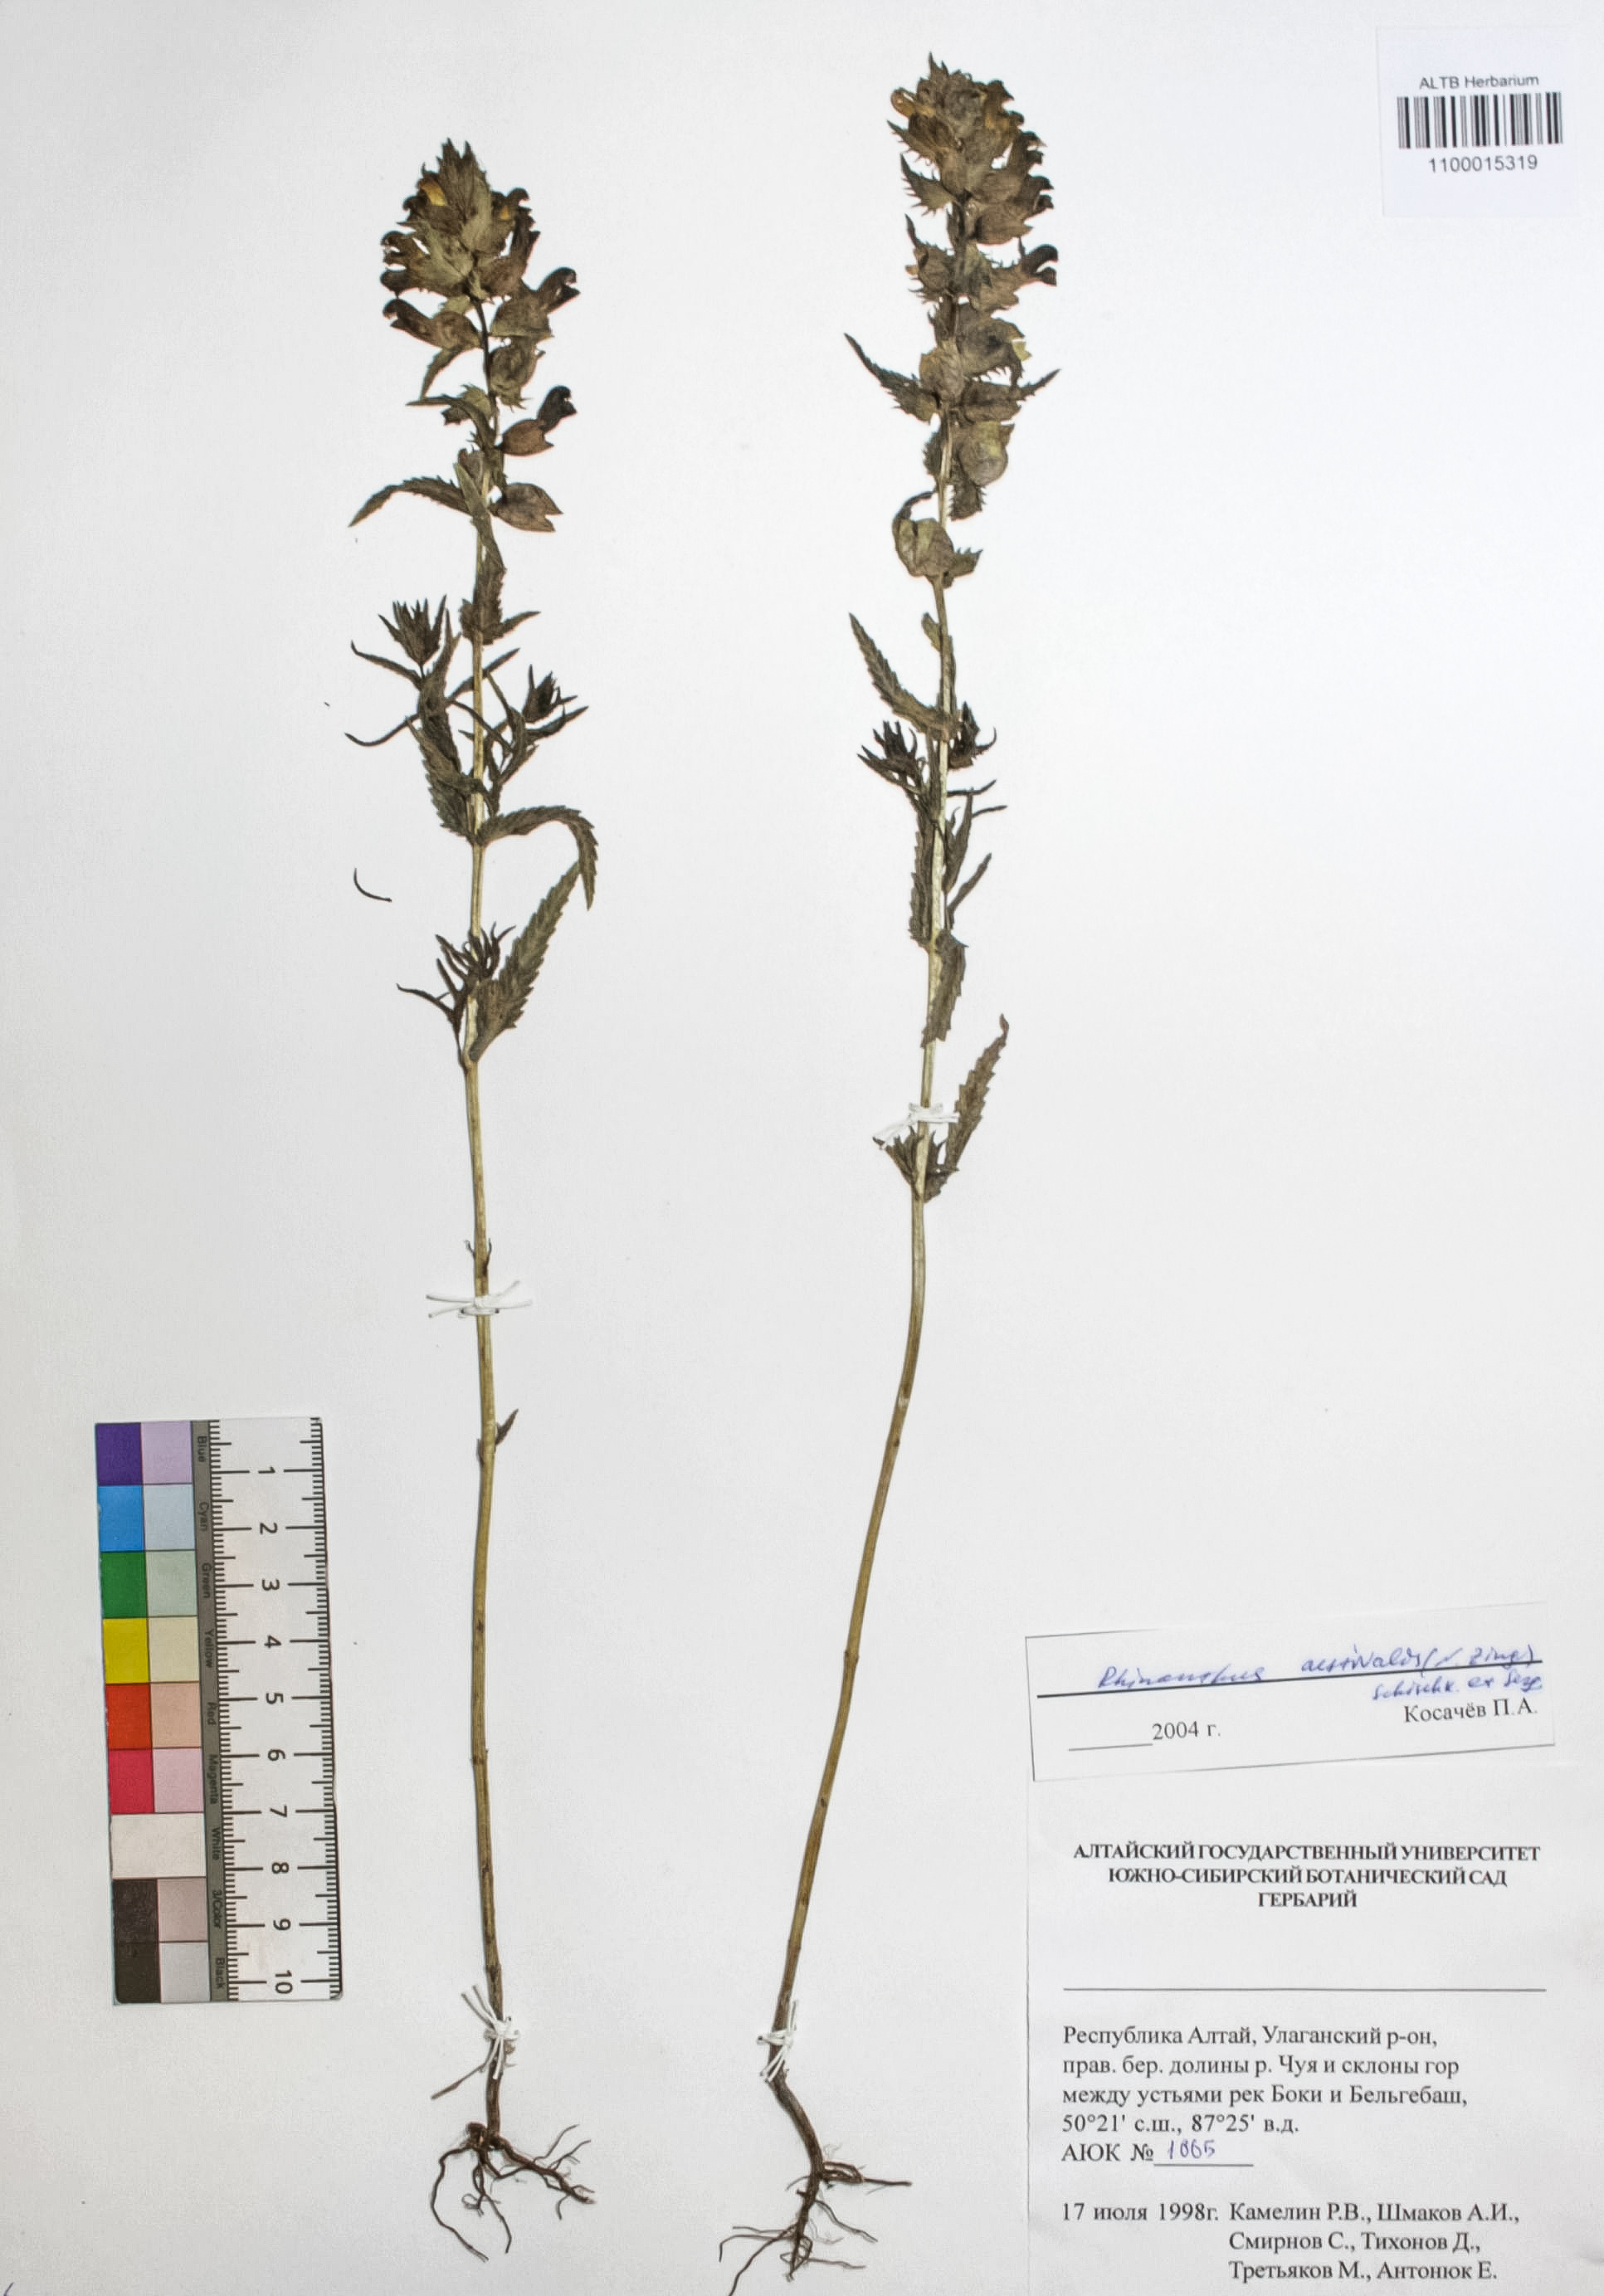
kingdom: Plantae
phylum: Tracheophyta
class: Magnoliopsida
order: Lamiales
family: Orobanchaceae
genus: Rhinanthus
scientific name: Rhinanthus serotinus
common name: Late-flowering yellow rattle
